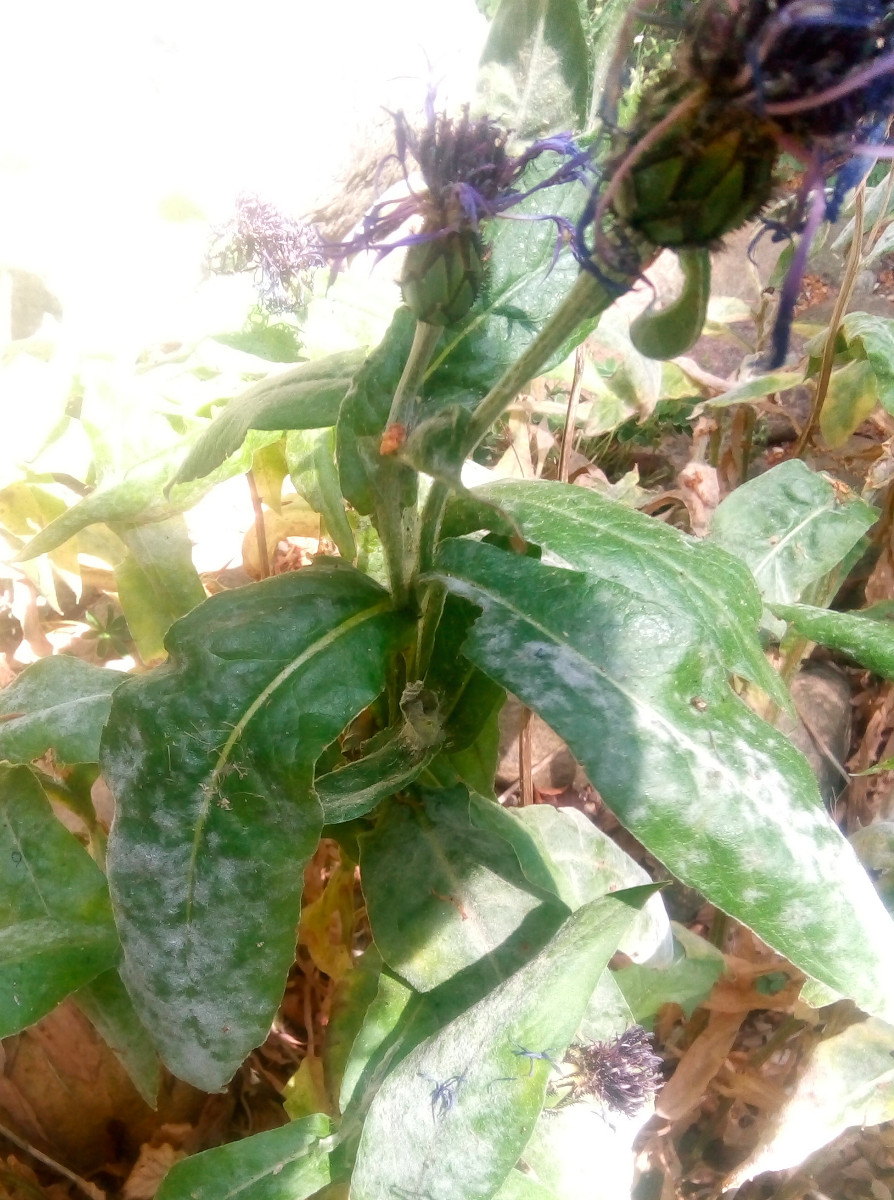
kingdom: Fungi
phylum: Ascomycota
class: Leotiomycetes
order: Helotiales
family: Erysiphaceae
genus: Golovinomyces
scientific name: Golovinomyces depressus
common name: Burdock mildew
